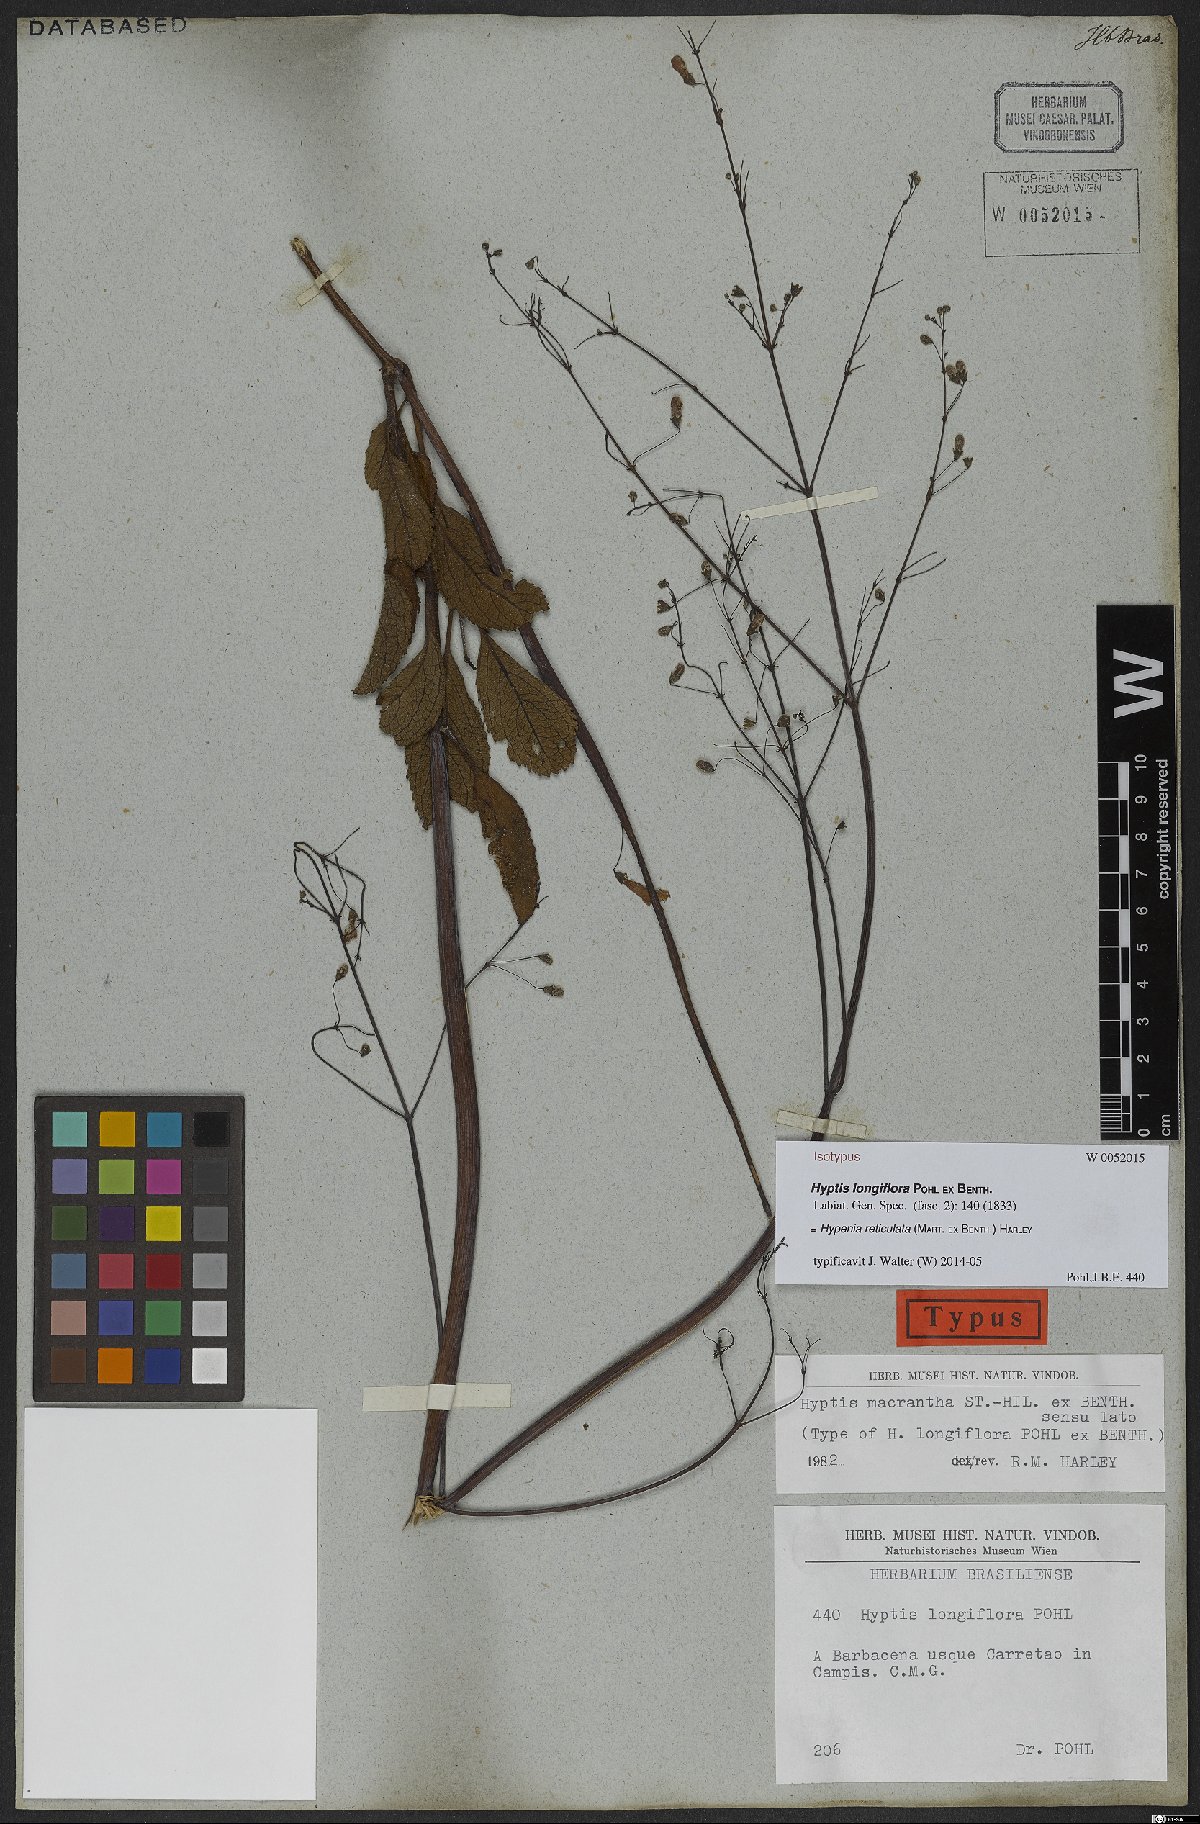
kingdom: Plantae
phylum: Tracheophyta
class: Magnoliopsida
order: Lamiales
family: Lamiaceae
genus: Hypenia
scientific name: Hypenia reticulata
